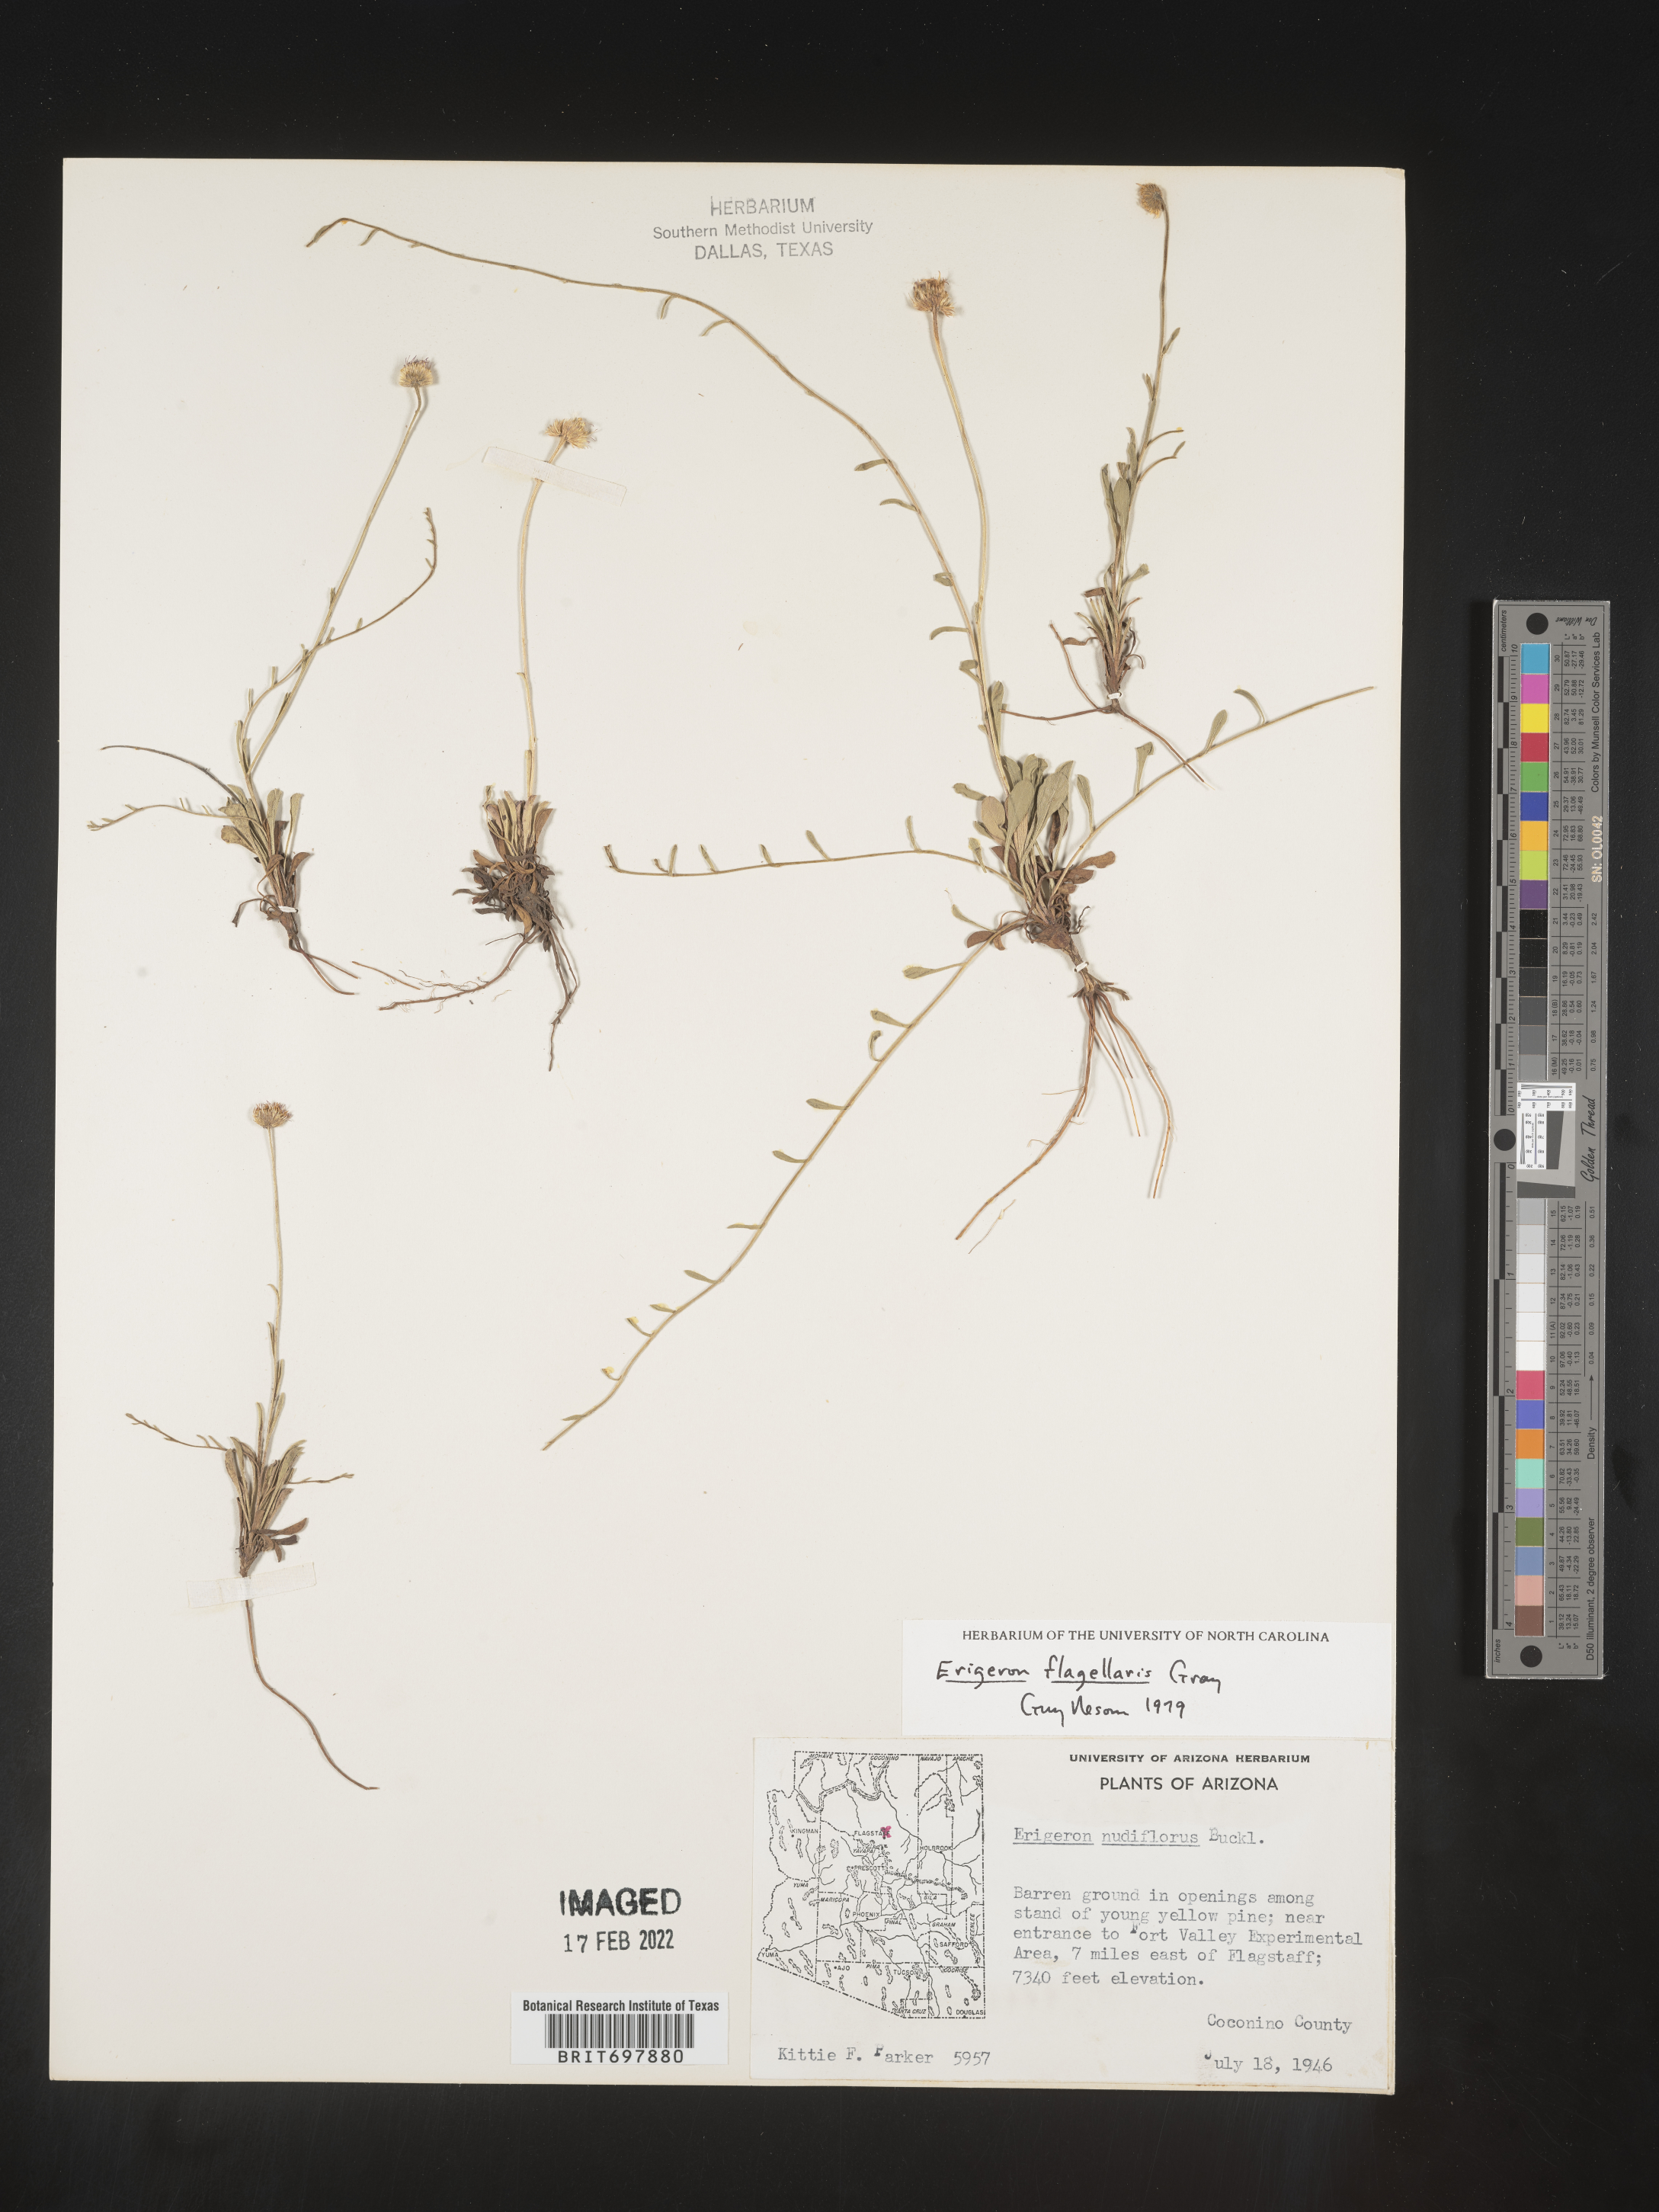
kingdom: Plantae
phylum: Tracheophyta
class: Magnoliopsida
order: Asterales
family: Asteraceae
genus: Erigeron
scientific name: Erigeron flagellaris
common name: Running fleabane
